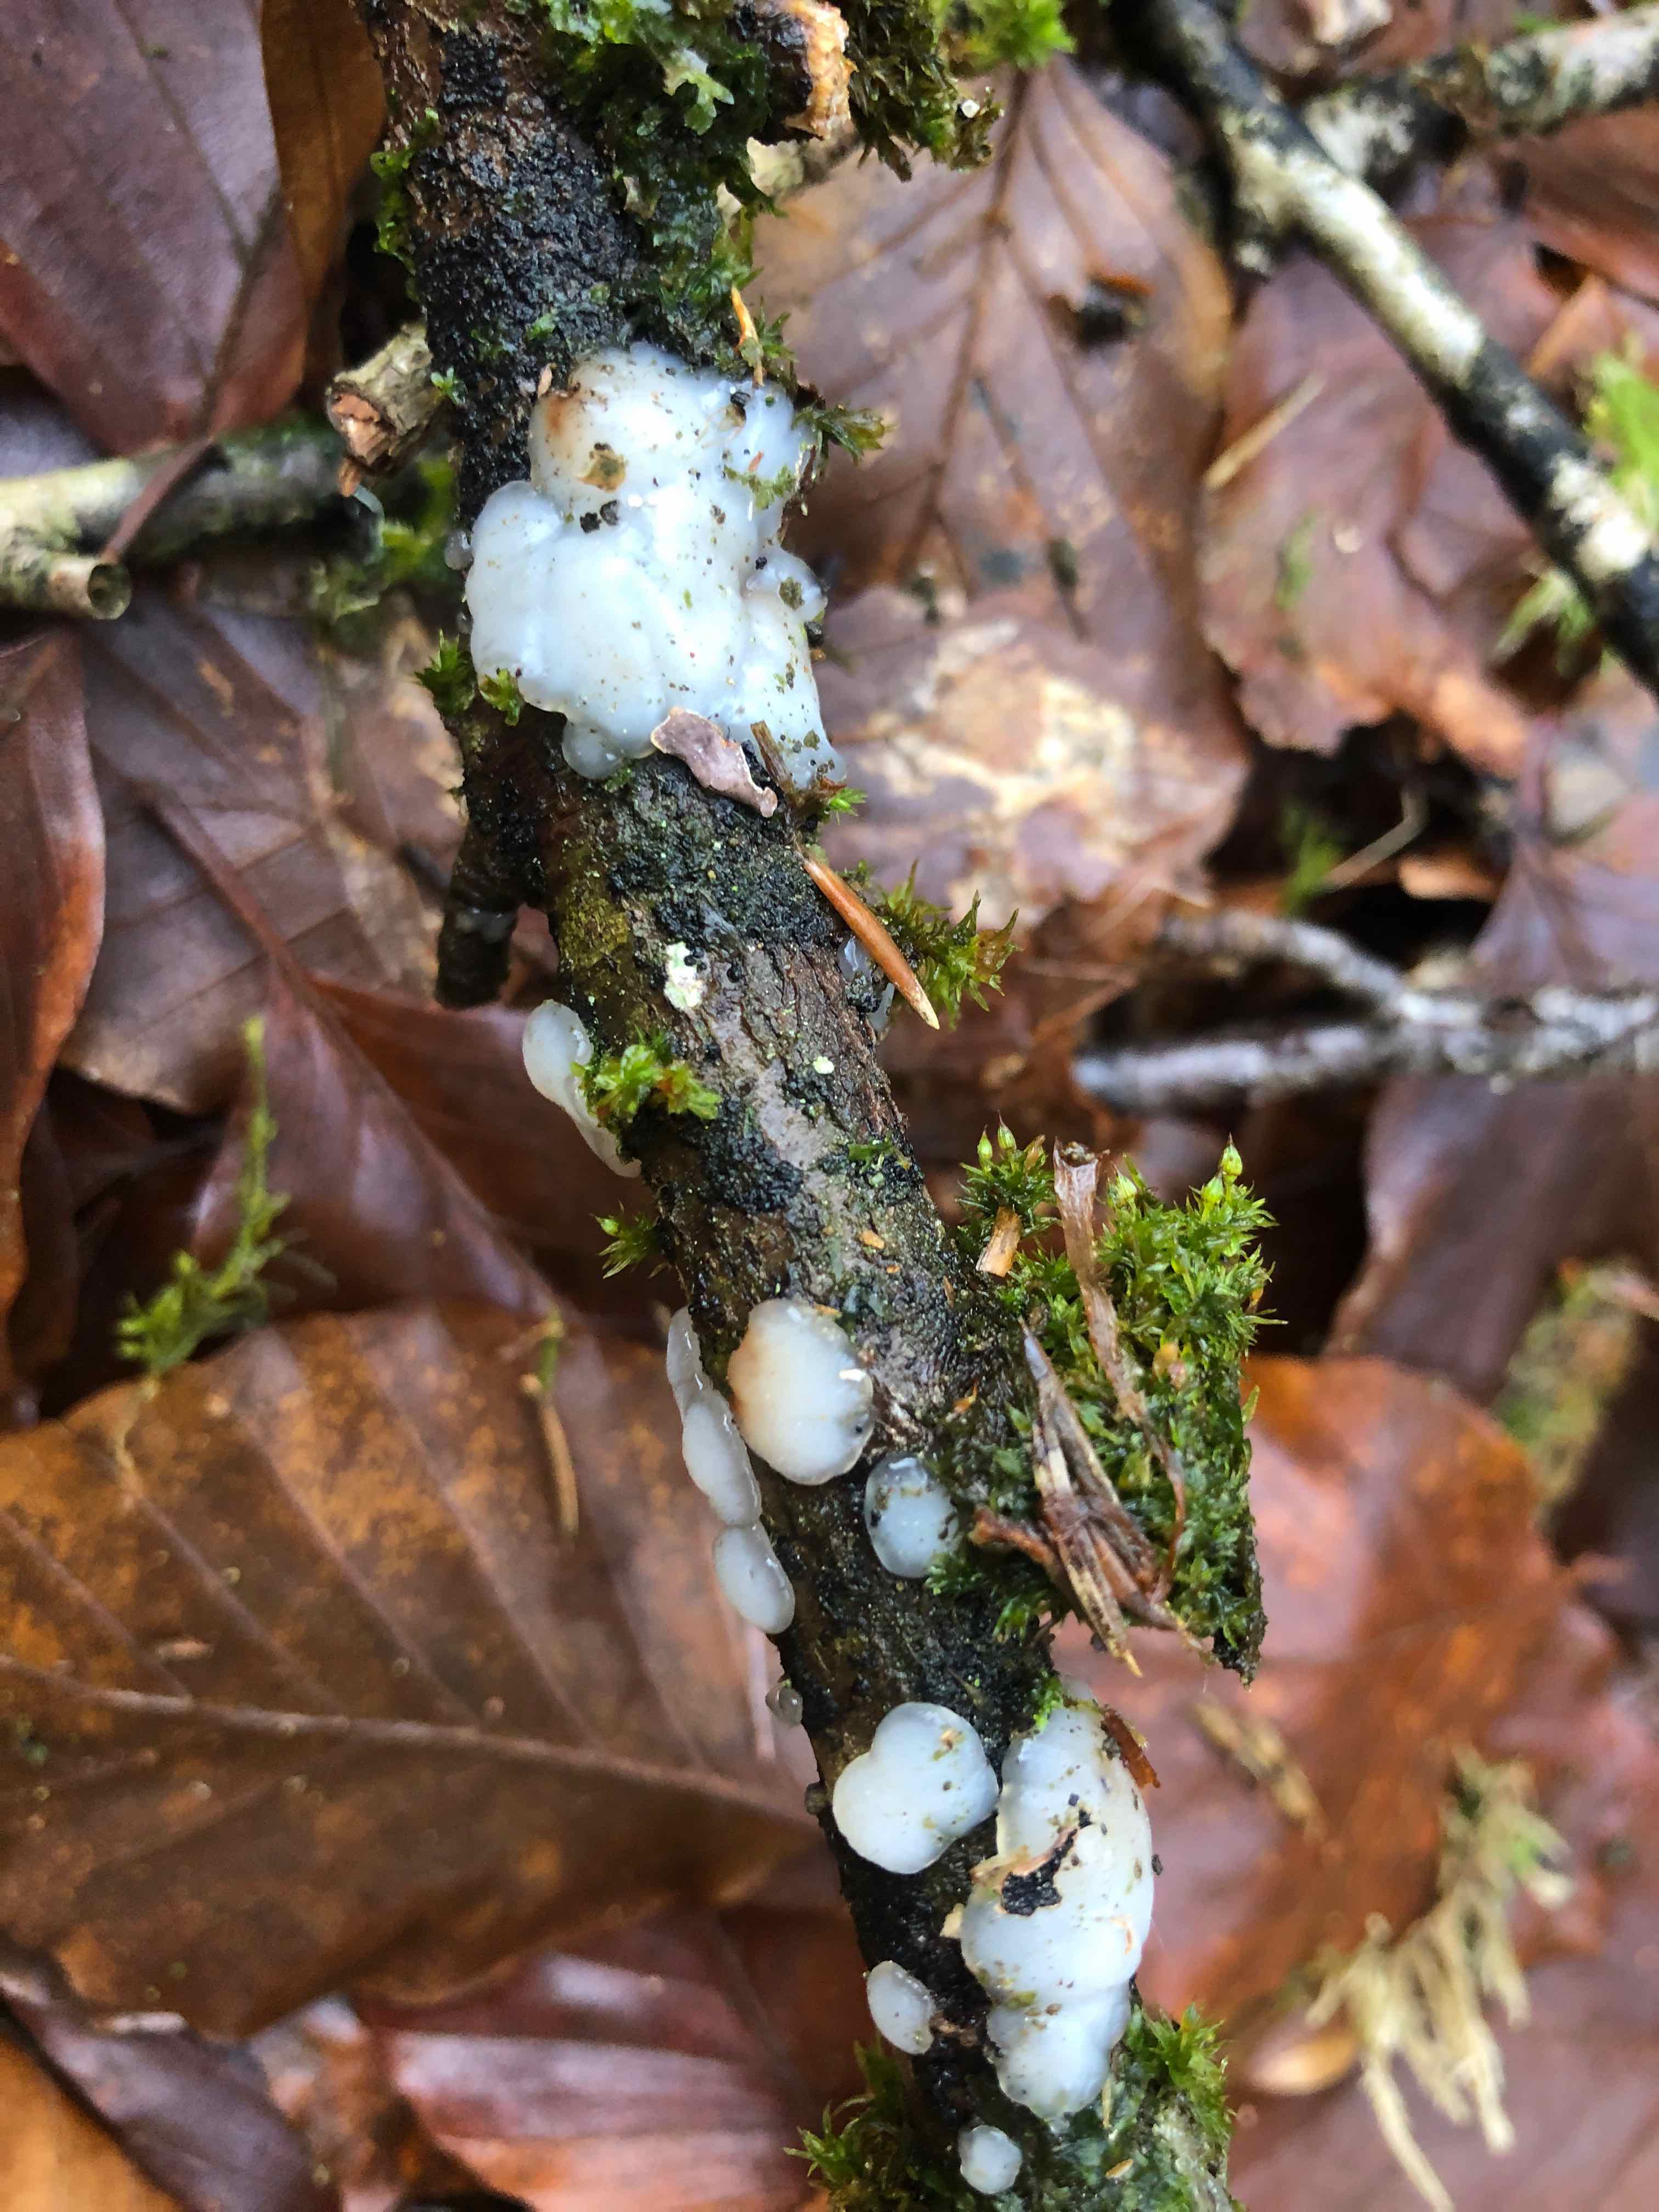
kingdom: Fungi
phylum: Basidiomycota
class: Agaricomycetes
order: Auriculariales
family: Auriculariaceae
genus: Exidia
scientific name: Exidia thuretiana
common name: hvidlig bævretop
